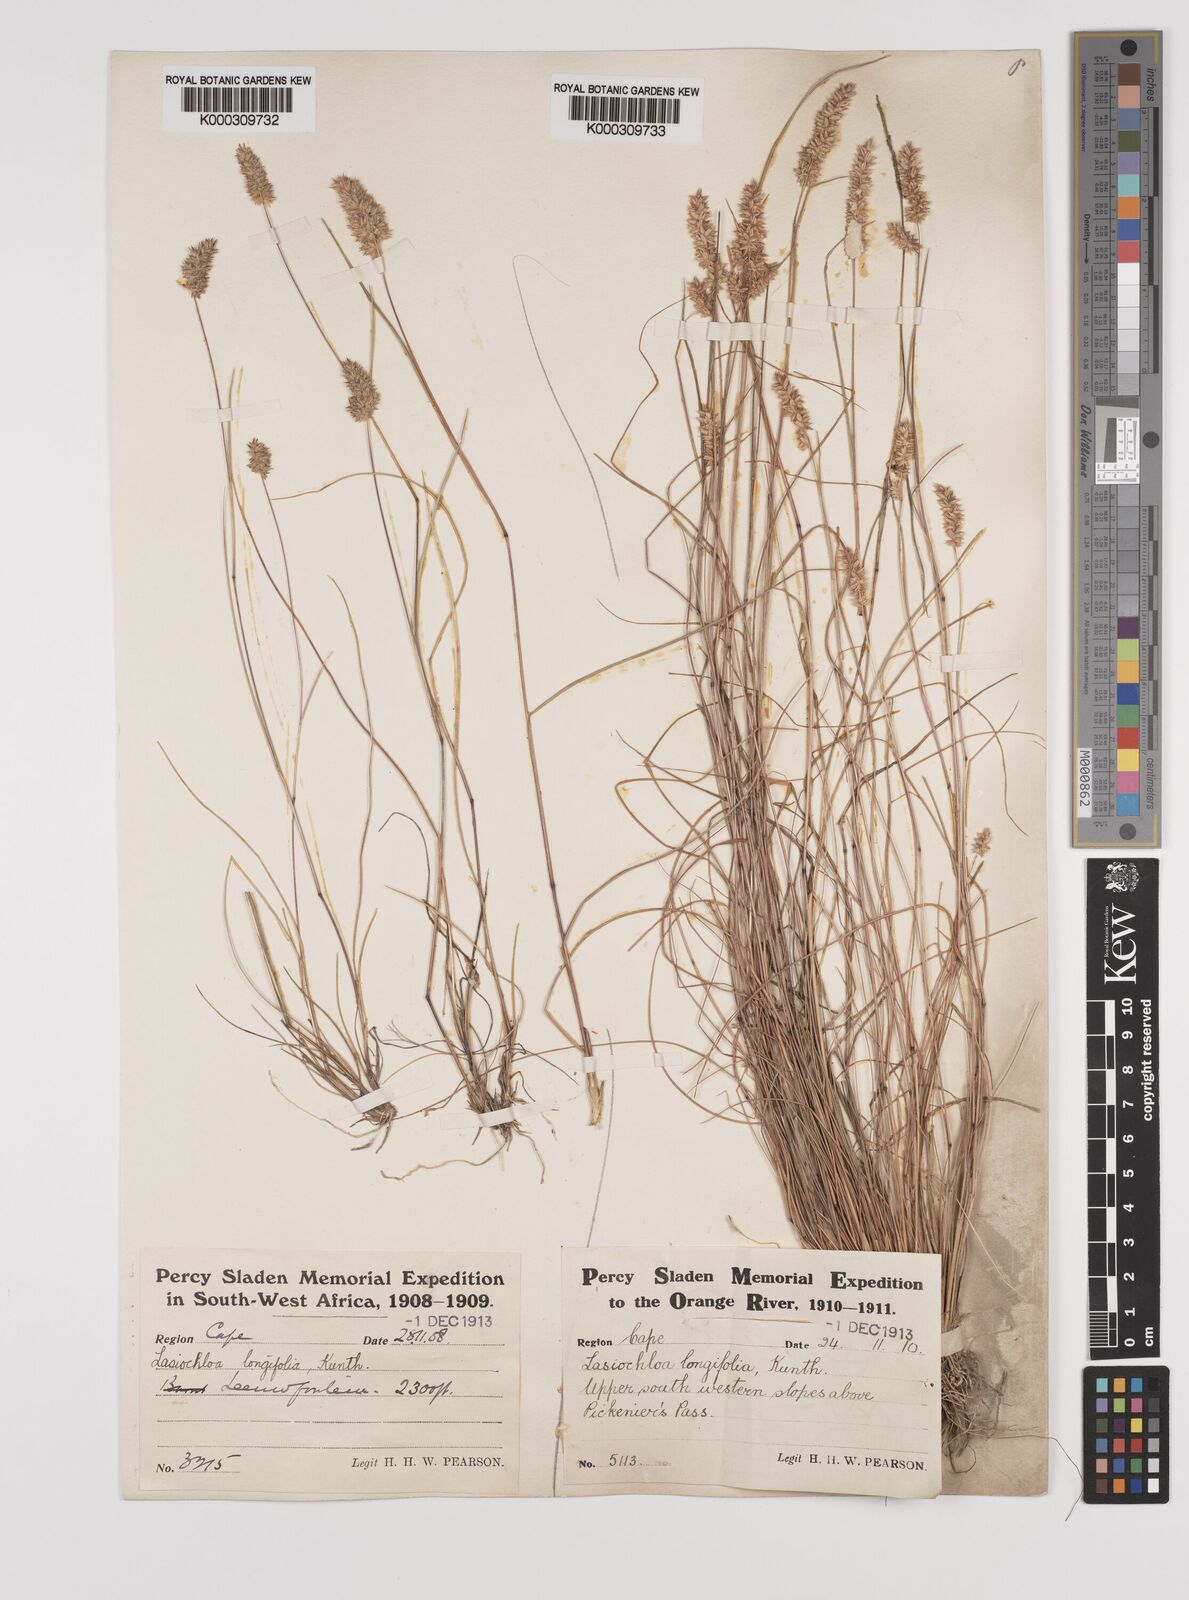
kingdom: Plantae
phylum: Tracheophyta
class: Liliopsida
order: Poales
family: Poaceae
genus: Tribolium
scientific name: Tribolium hispidum
